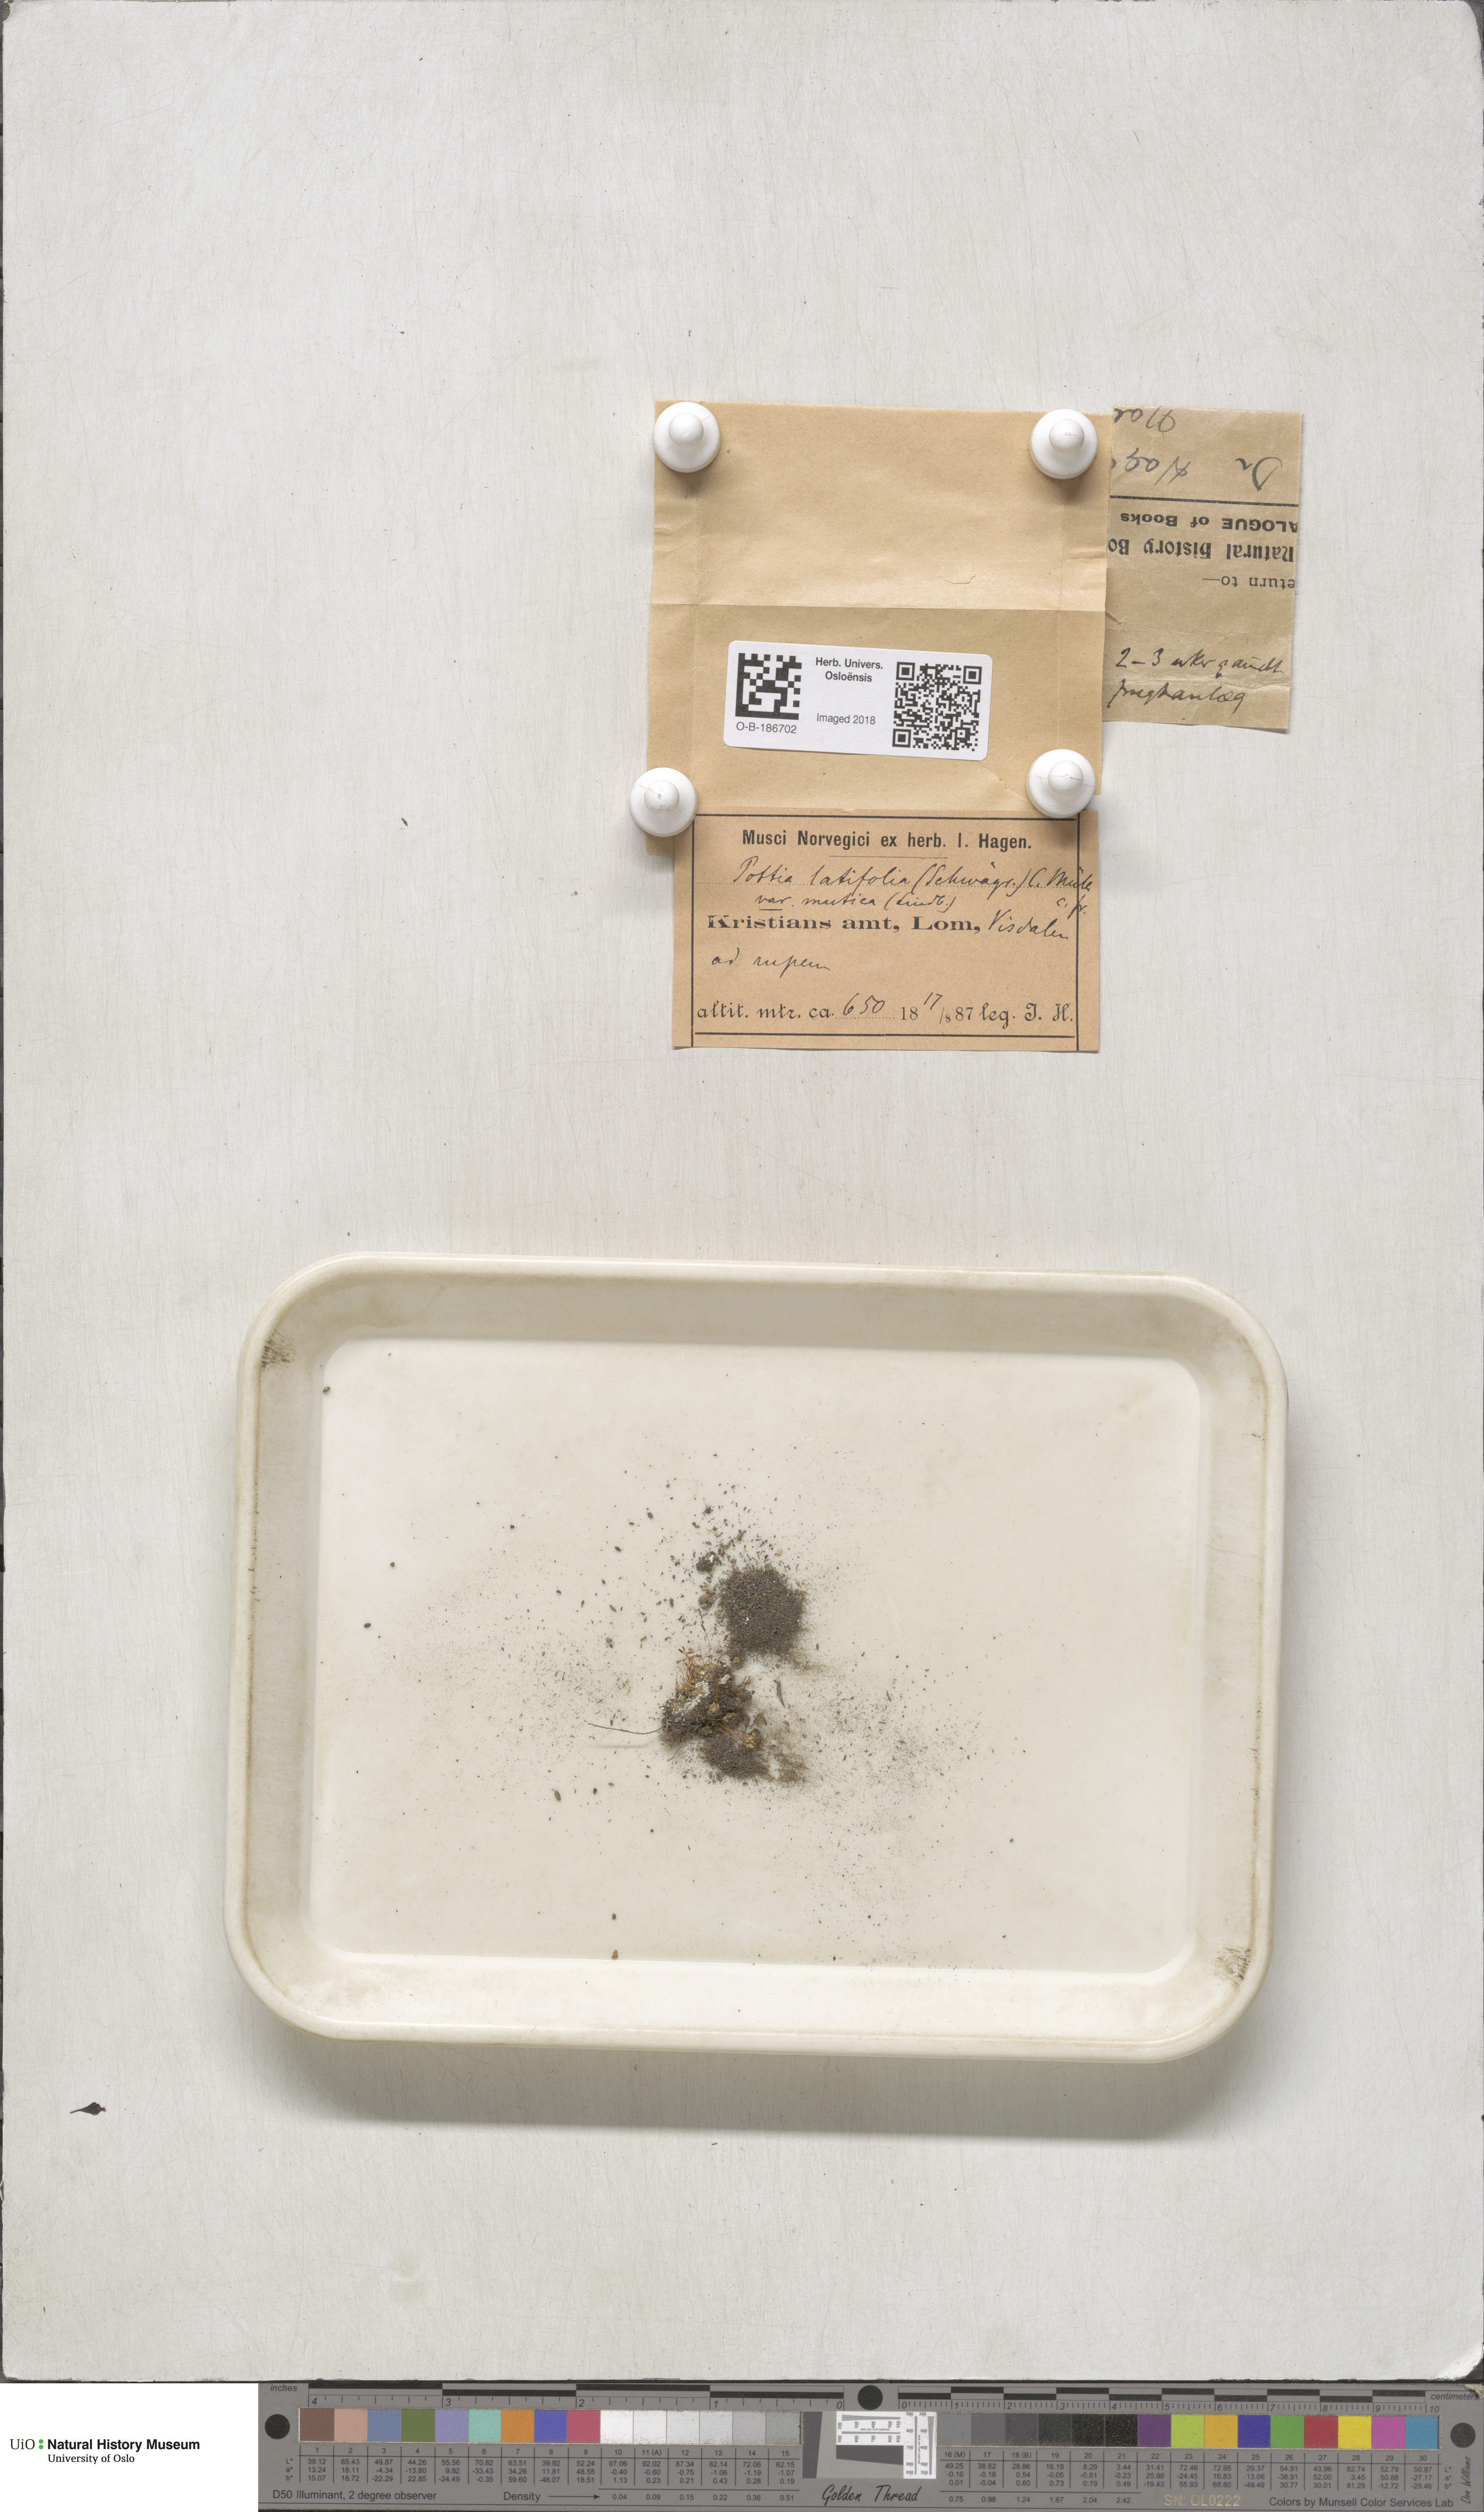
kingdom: Plantae
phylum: Bryophyta
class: Bryopsida
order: Pottiales
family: Pottiaceae
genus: Stegonia
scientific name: Stegonia latifolia
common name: Hood-leaved screw-moss
